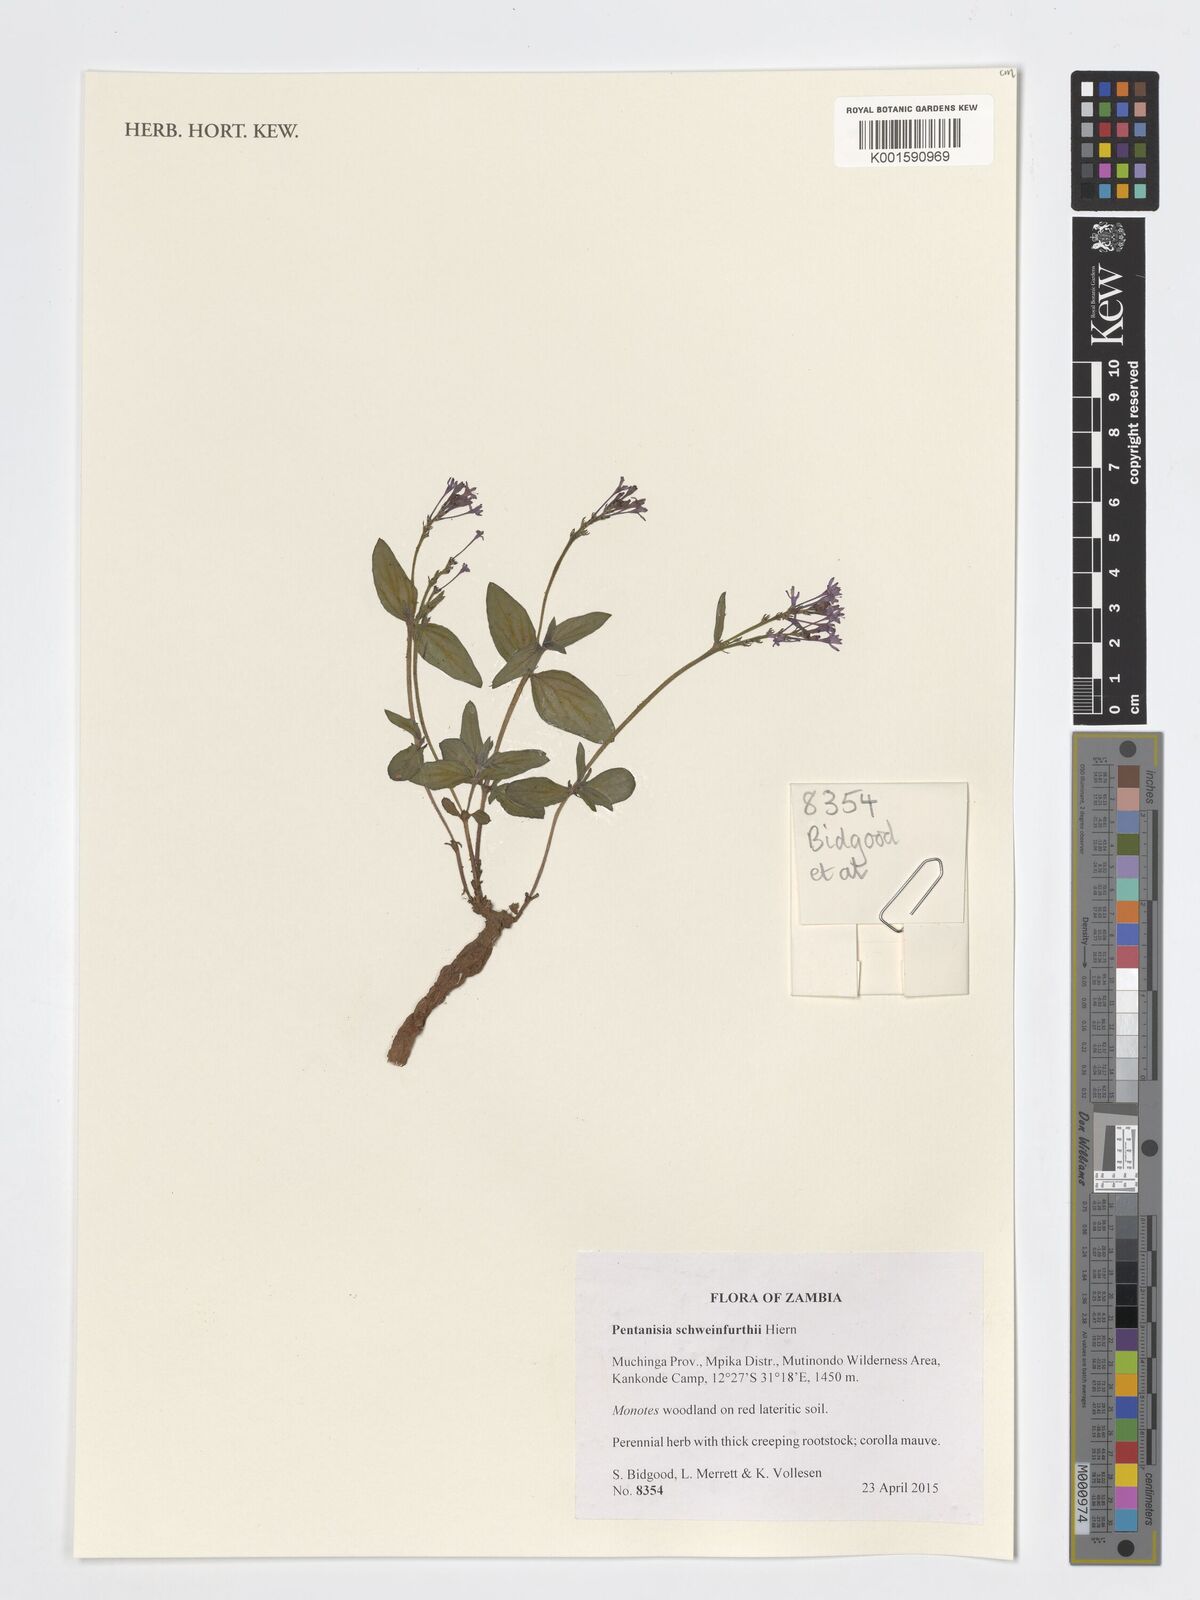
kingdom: Plantae
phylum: Tracheophyta
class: Magnoliopsida
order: Gentianales
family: Rubiaceae
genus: Pentanisia
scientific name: Pentanisia schweinfurthii
